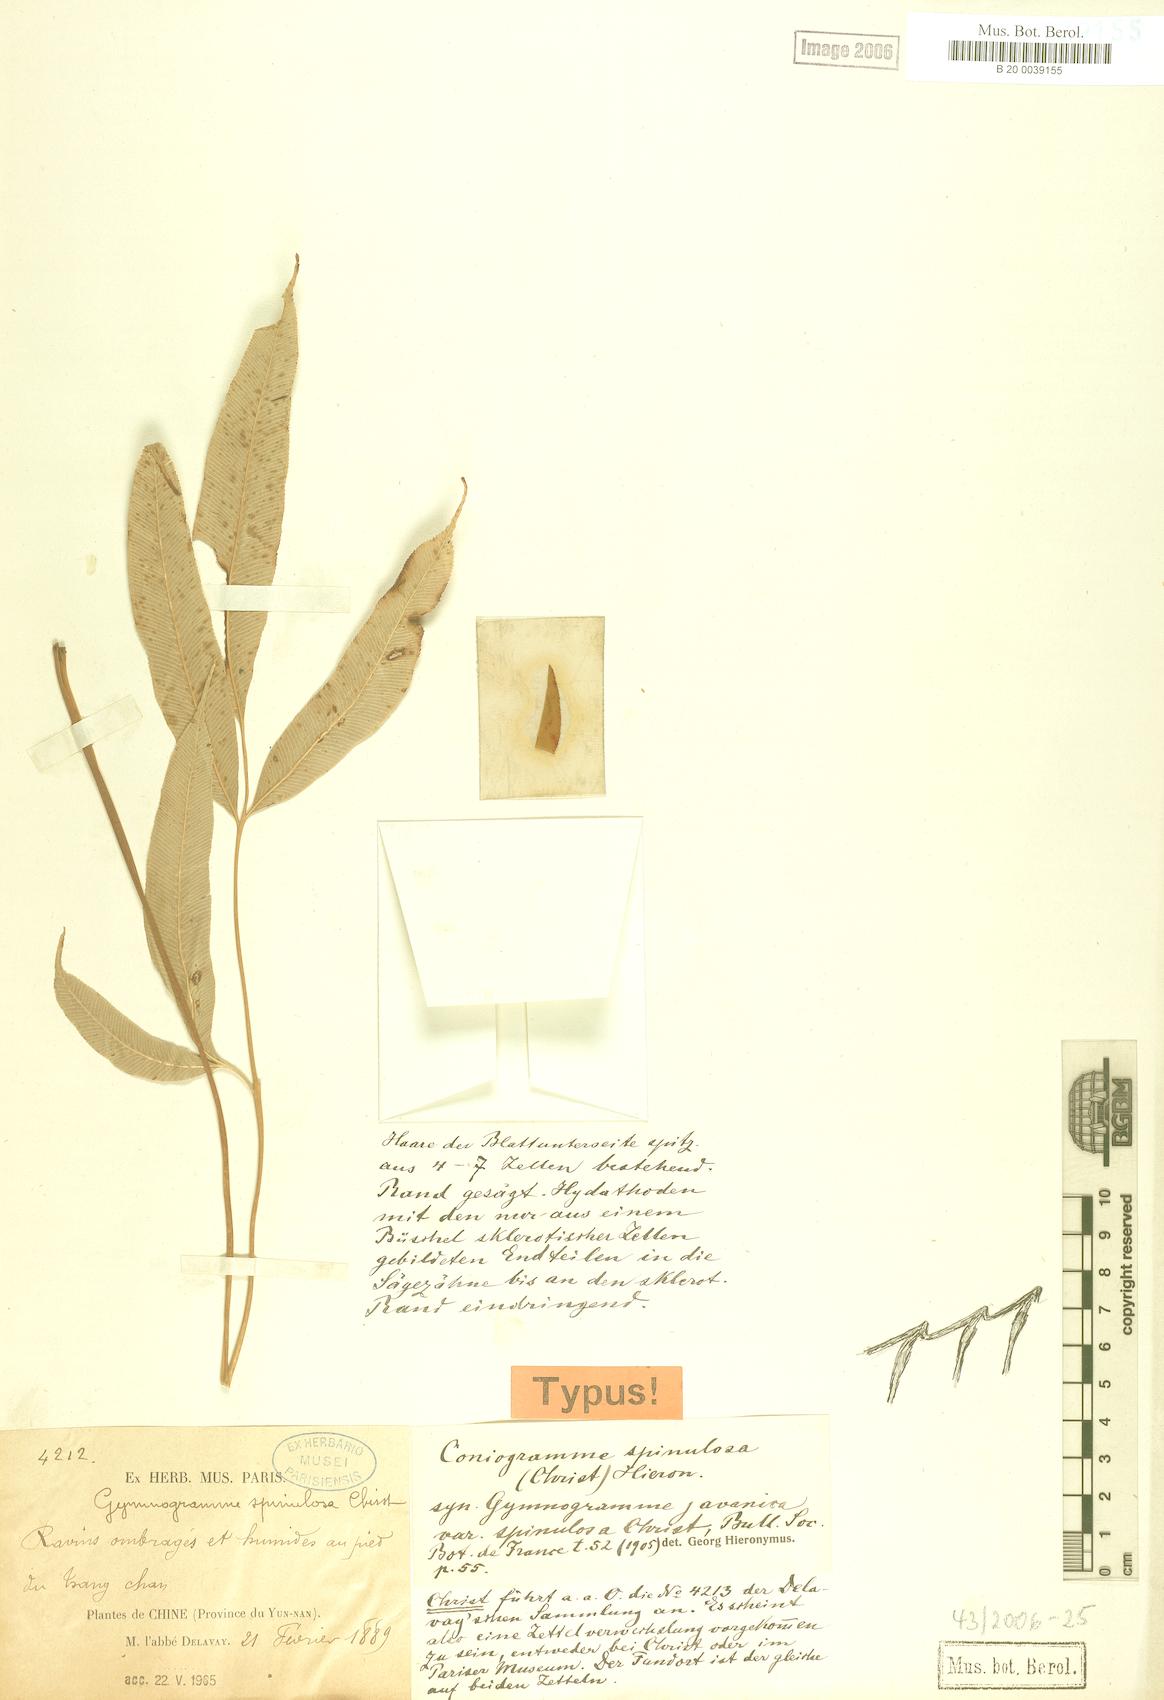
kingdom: Plantae
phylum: Tracheophyta
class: Polypodiopsida
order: Polypodiales
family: Pteridaceae
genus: Coniogramme
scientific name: Coniogramme pubescens
